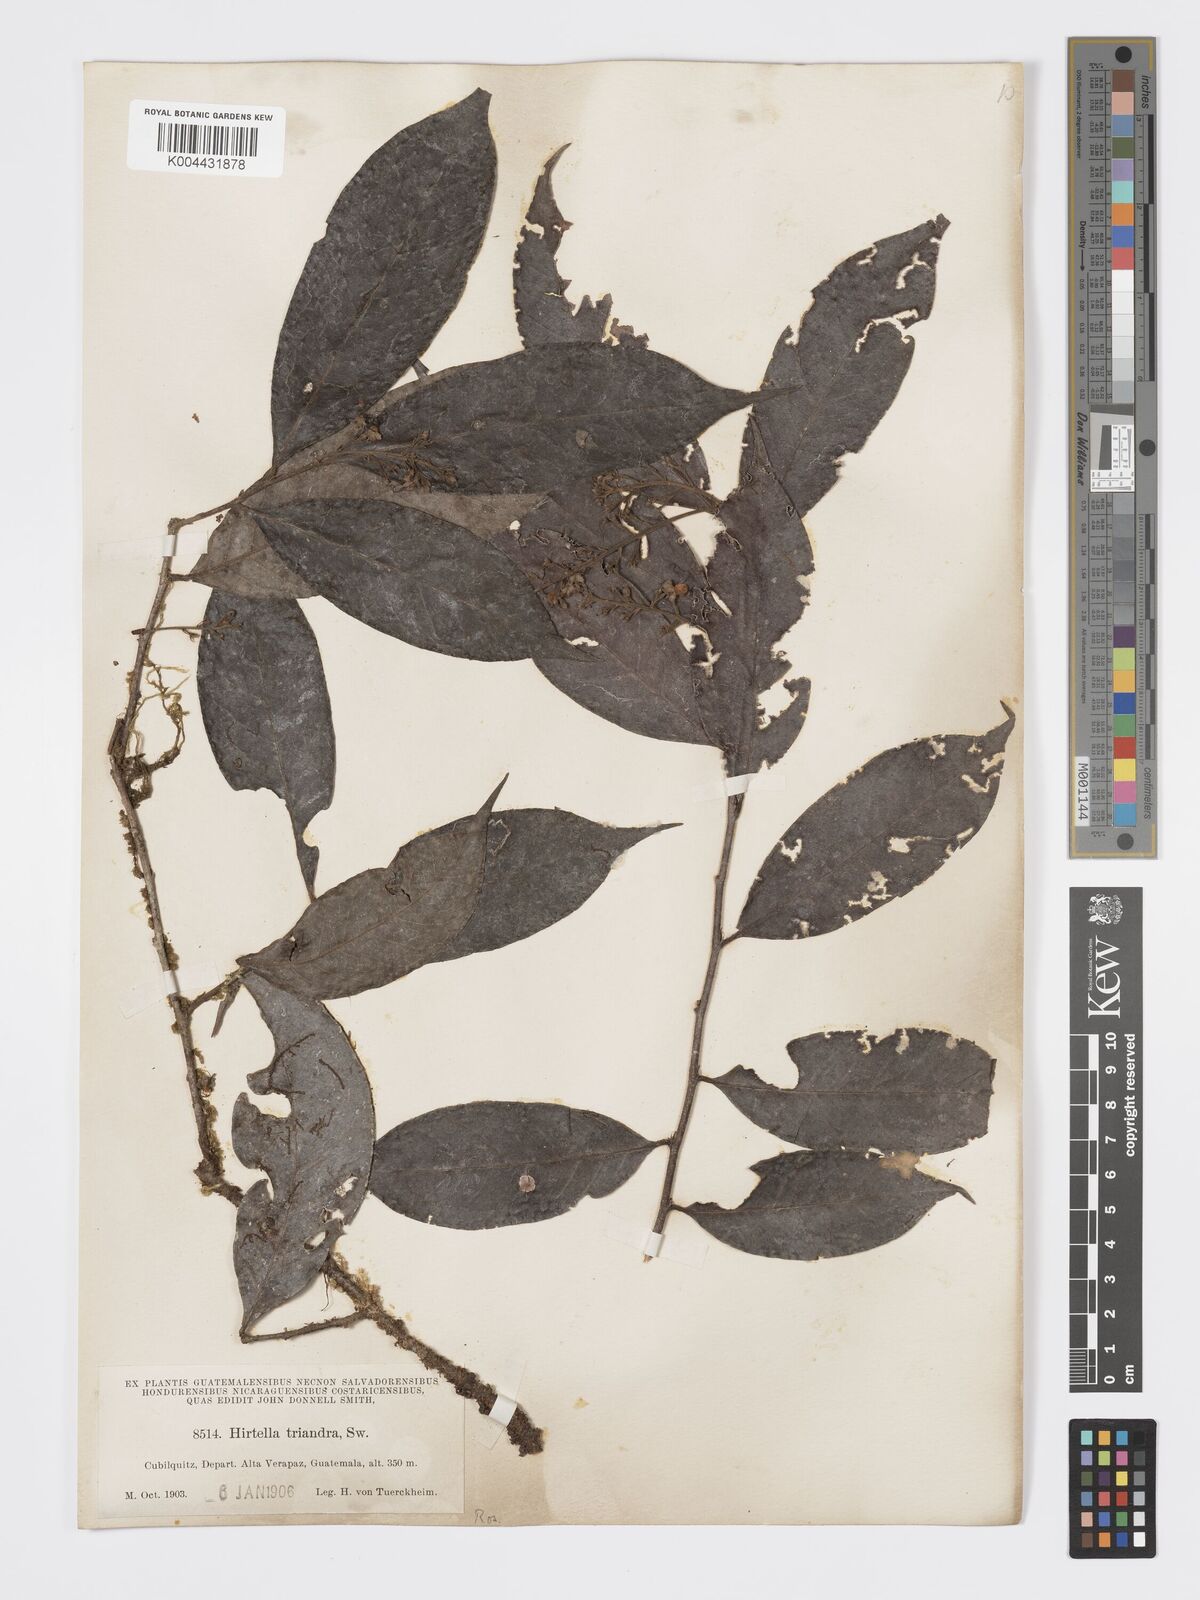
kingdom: Plantae
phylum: Tracheophyta
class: Magnoliopsida
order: Malpighiales
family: Chrysobalanaceae
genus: Hirtella
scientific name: Hirtella triandra
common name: Hairy plum
